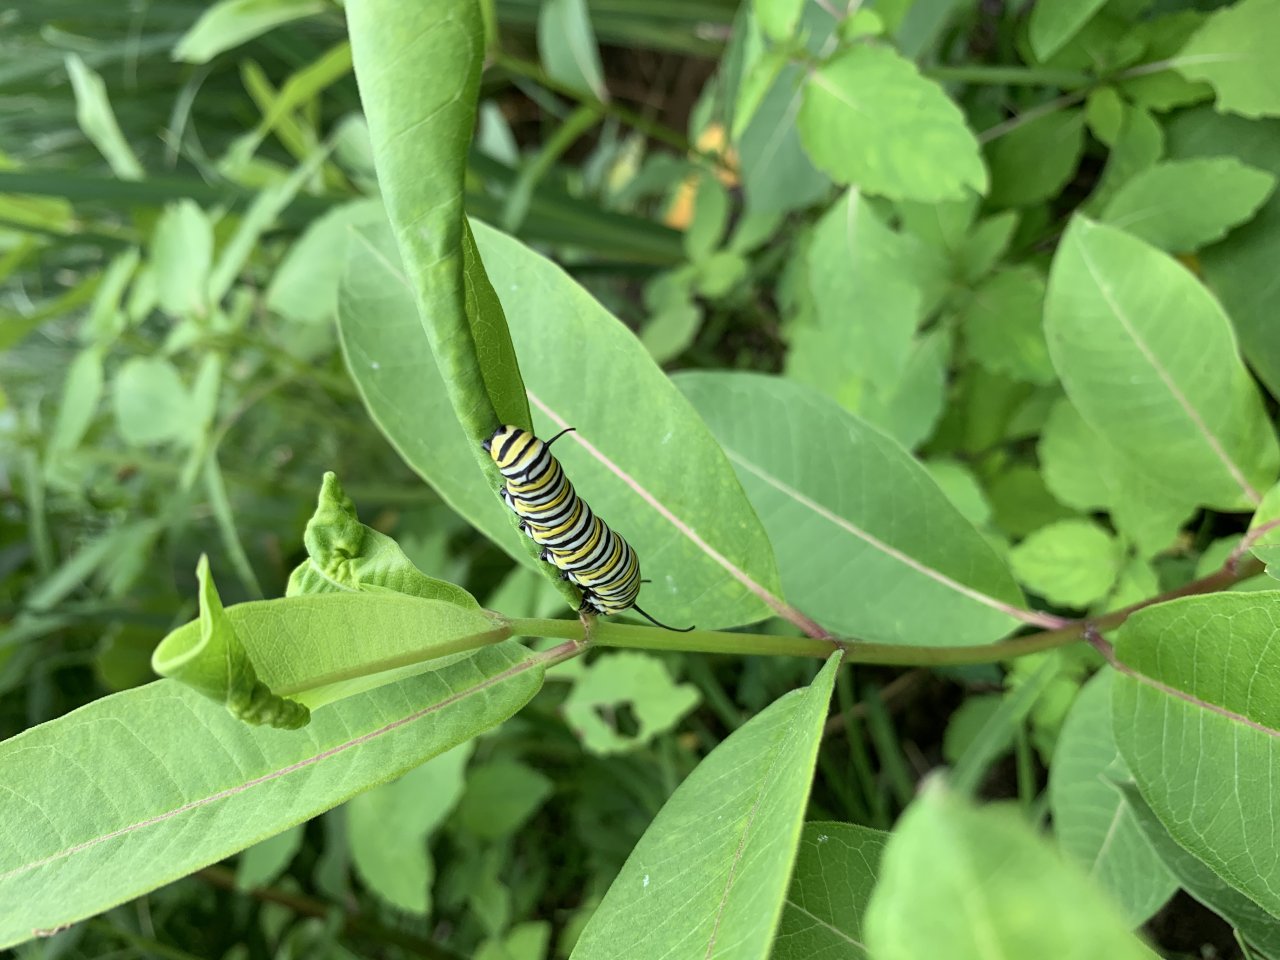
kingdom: Animalia
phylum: Arthropoda
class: Insecta
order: Lepidoptera
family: Nymphalidae
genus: Danaus
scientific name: Danaus plexippus
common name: Monarch
